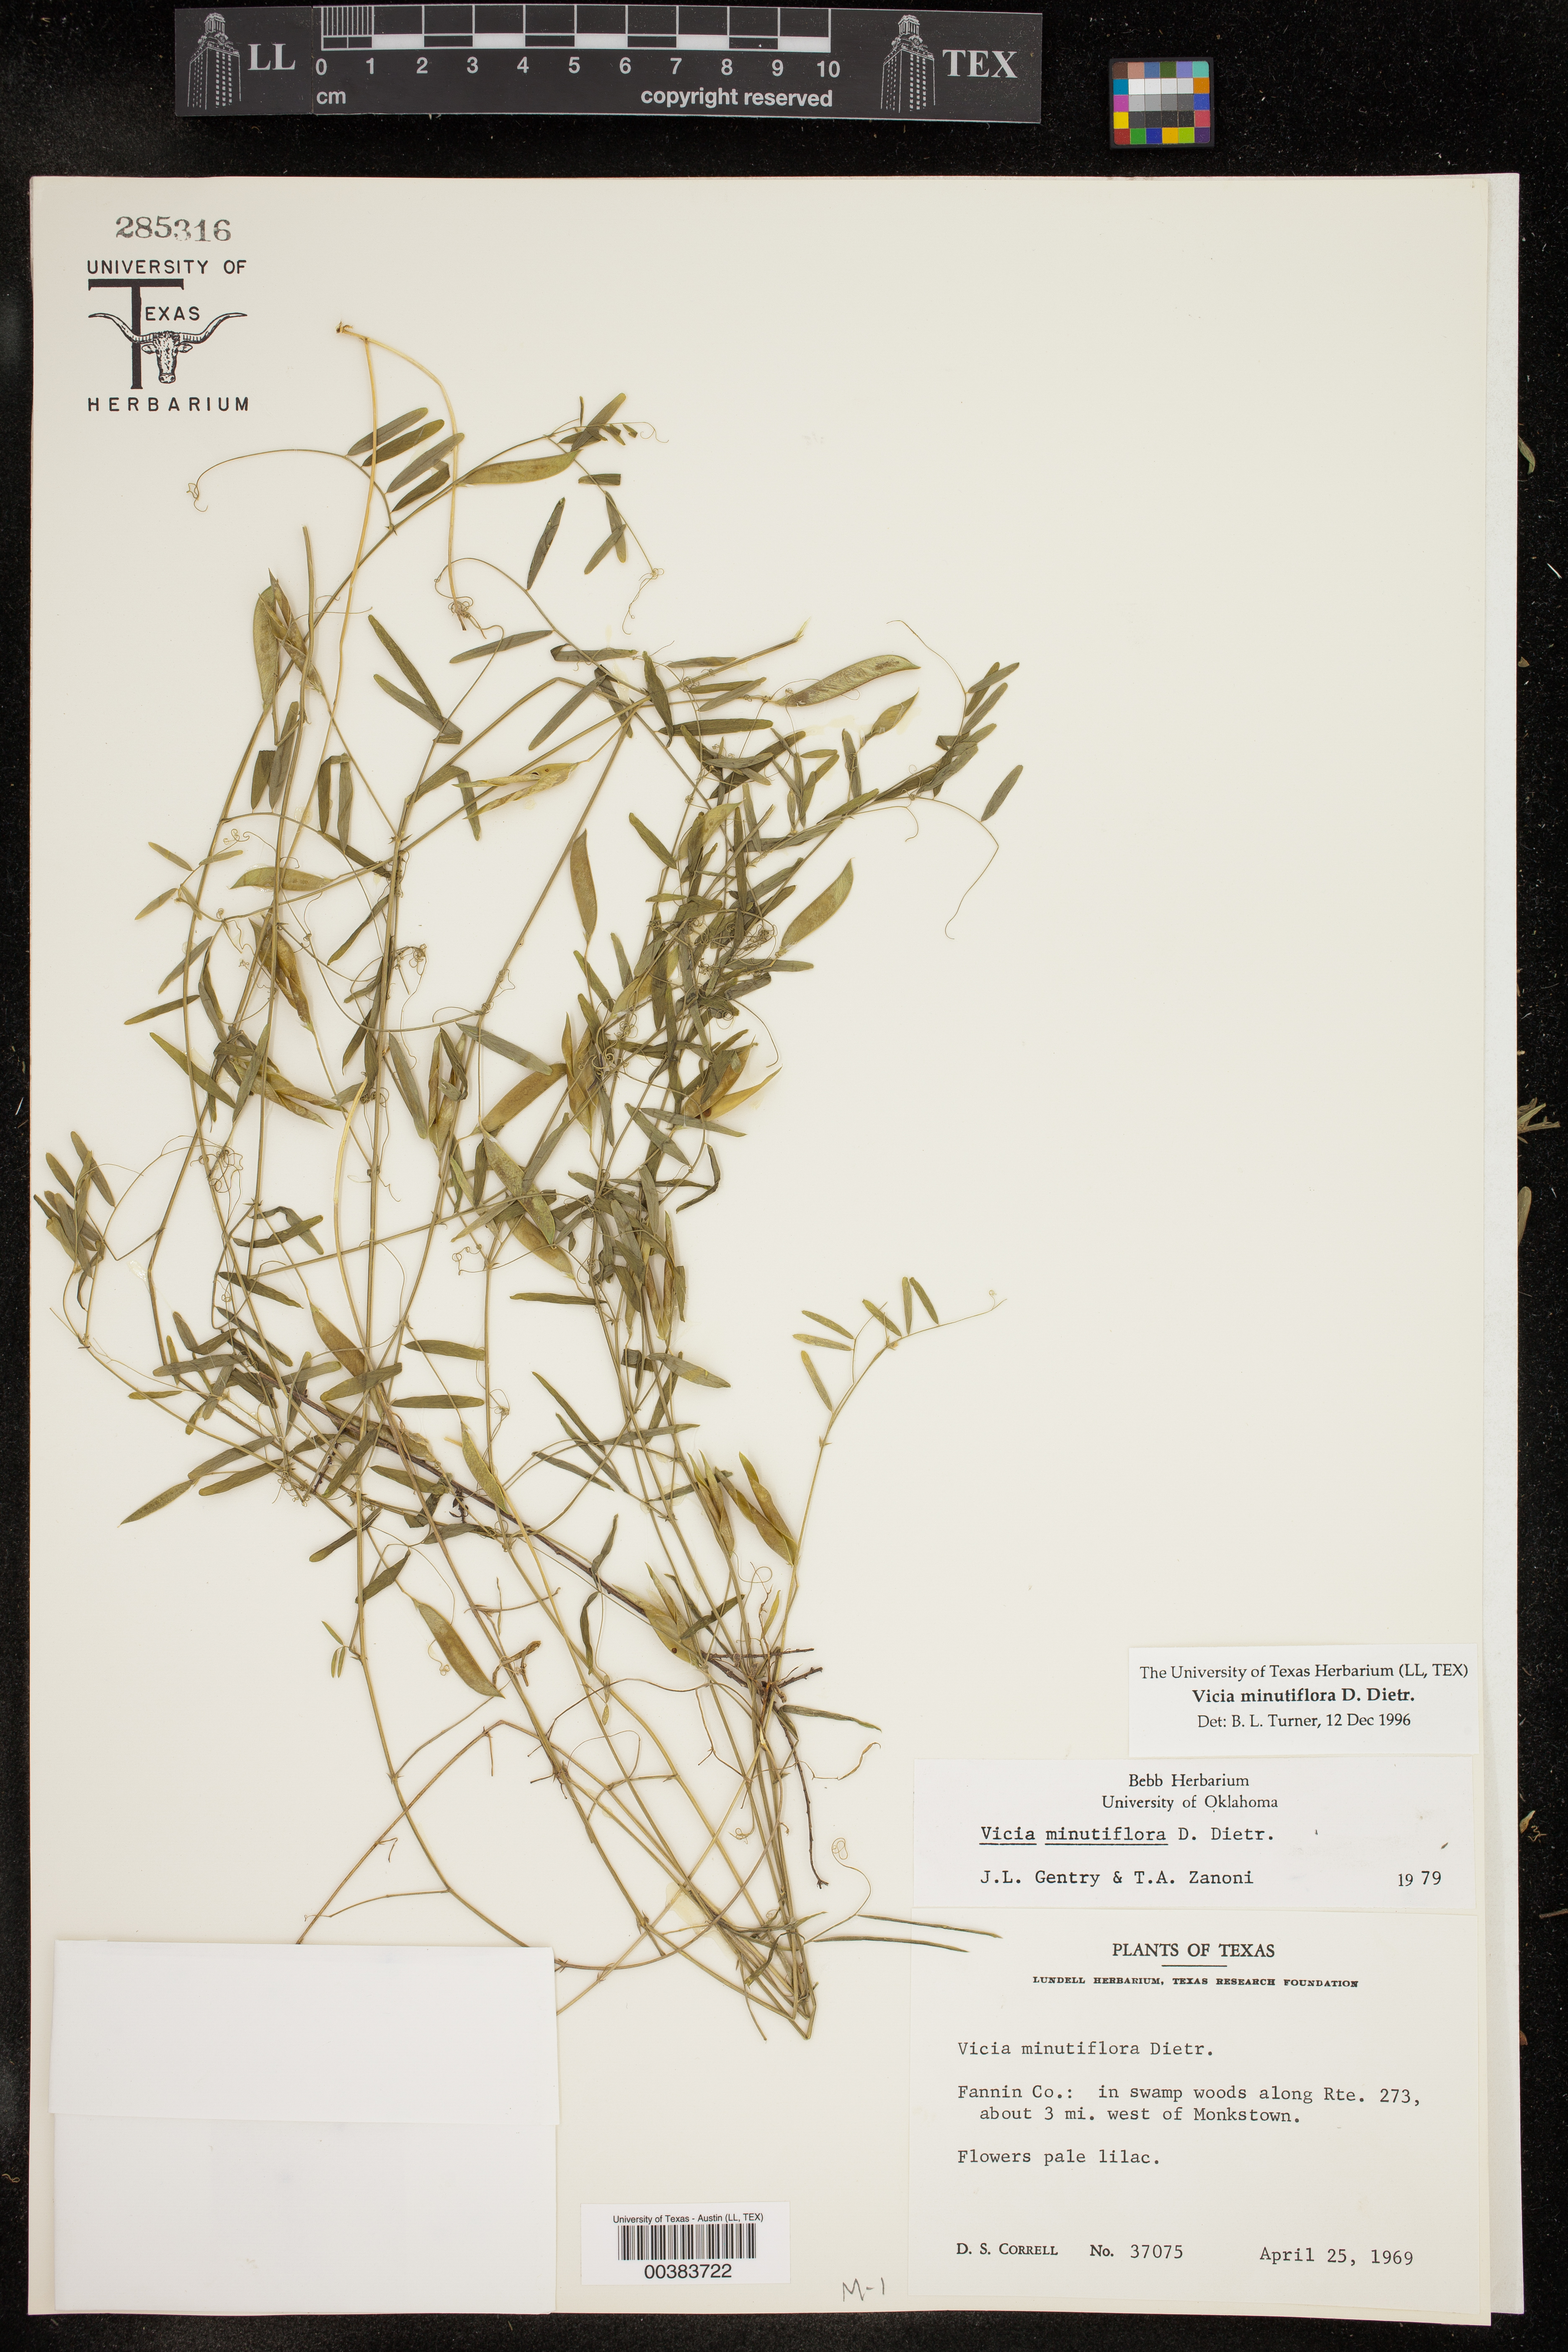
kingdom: Plantae
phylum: Tracheophyta
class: Magnoliopsida
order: Fabales
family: Fabaceae
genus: Vicia
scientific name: Vicia minutiflora
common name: Pygmy-flower vetch
